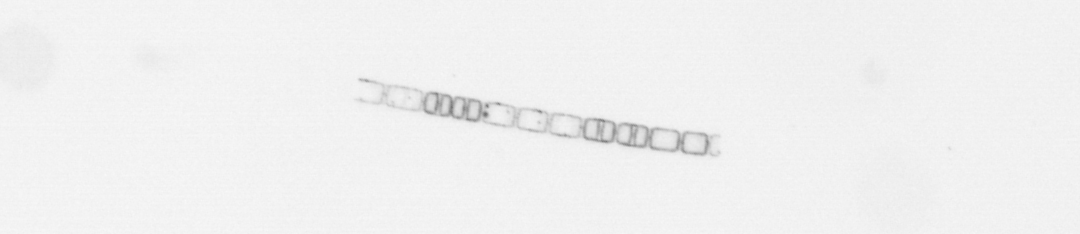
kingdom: Chromista
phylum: Ochrophyta
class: Bacillariophyceae
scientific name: Bacillariophyceae
